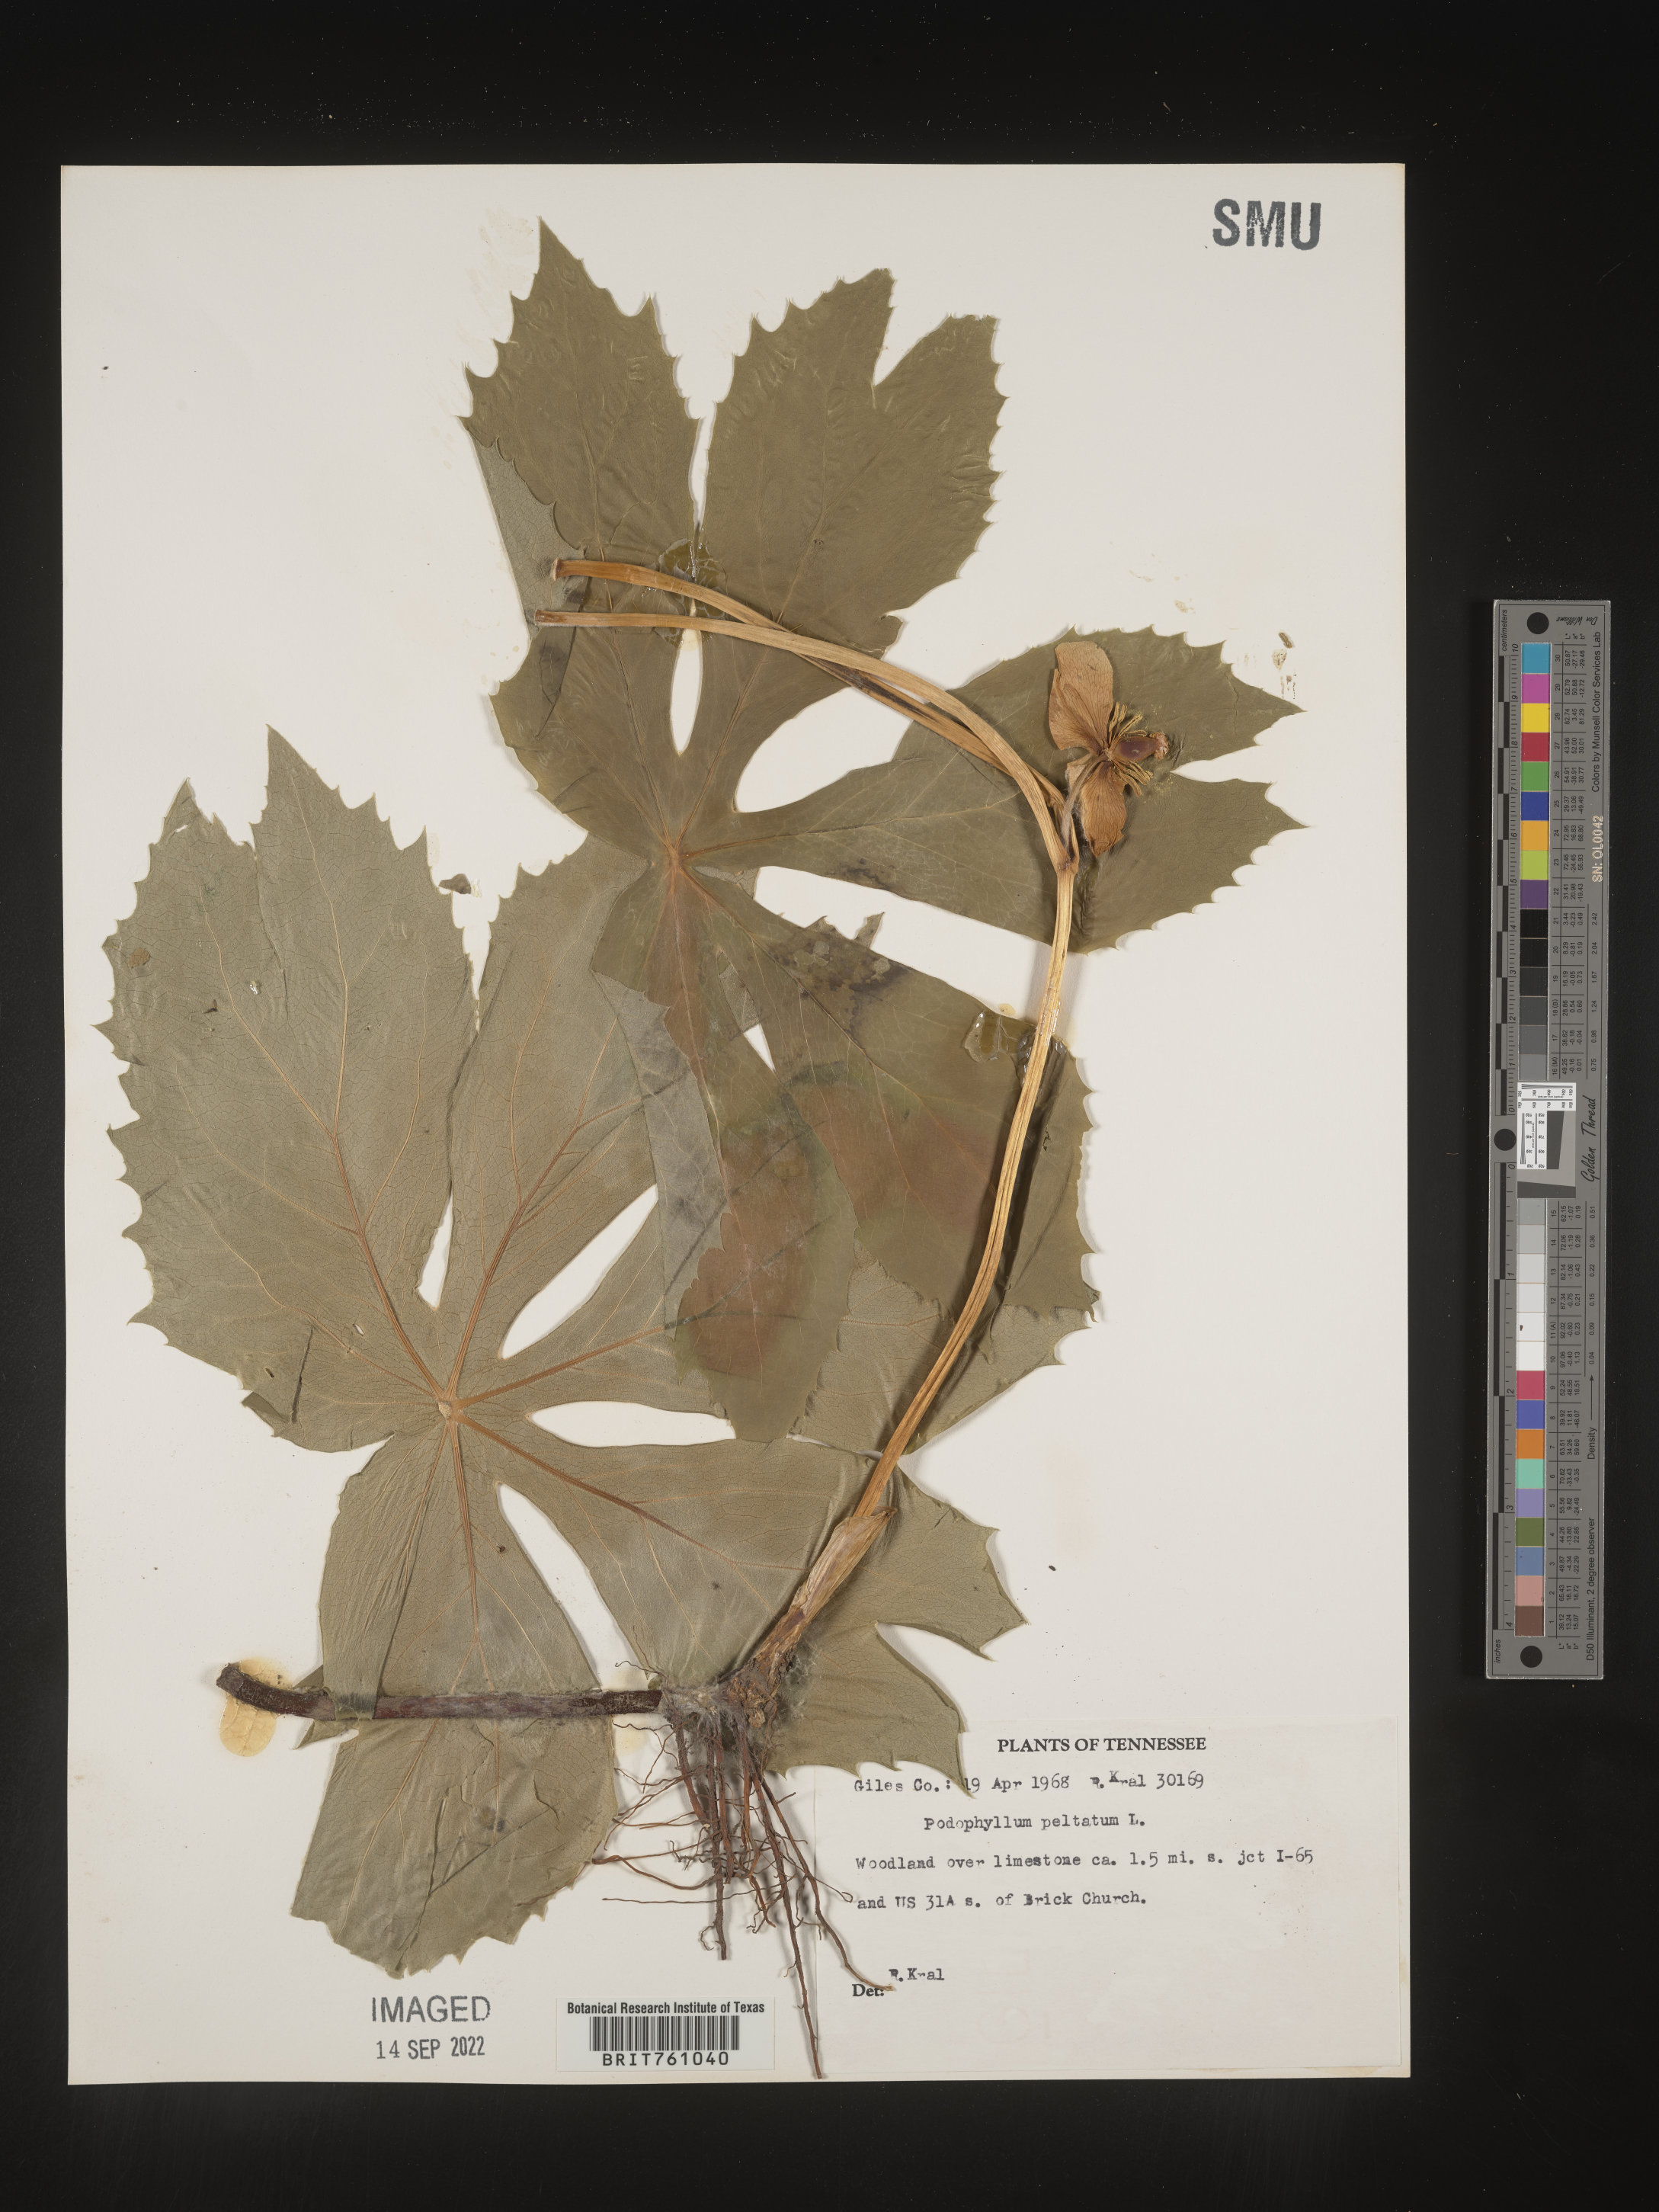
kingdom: Plantae
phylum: Tracheophyta
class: Magnoliopsida
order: Ranunculales
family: Berberidaceae
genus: Podophyllum
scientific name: Podophyllum peltatum
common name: Wild mandrake
